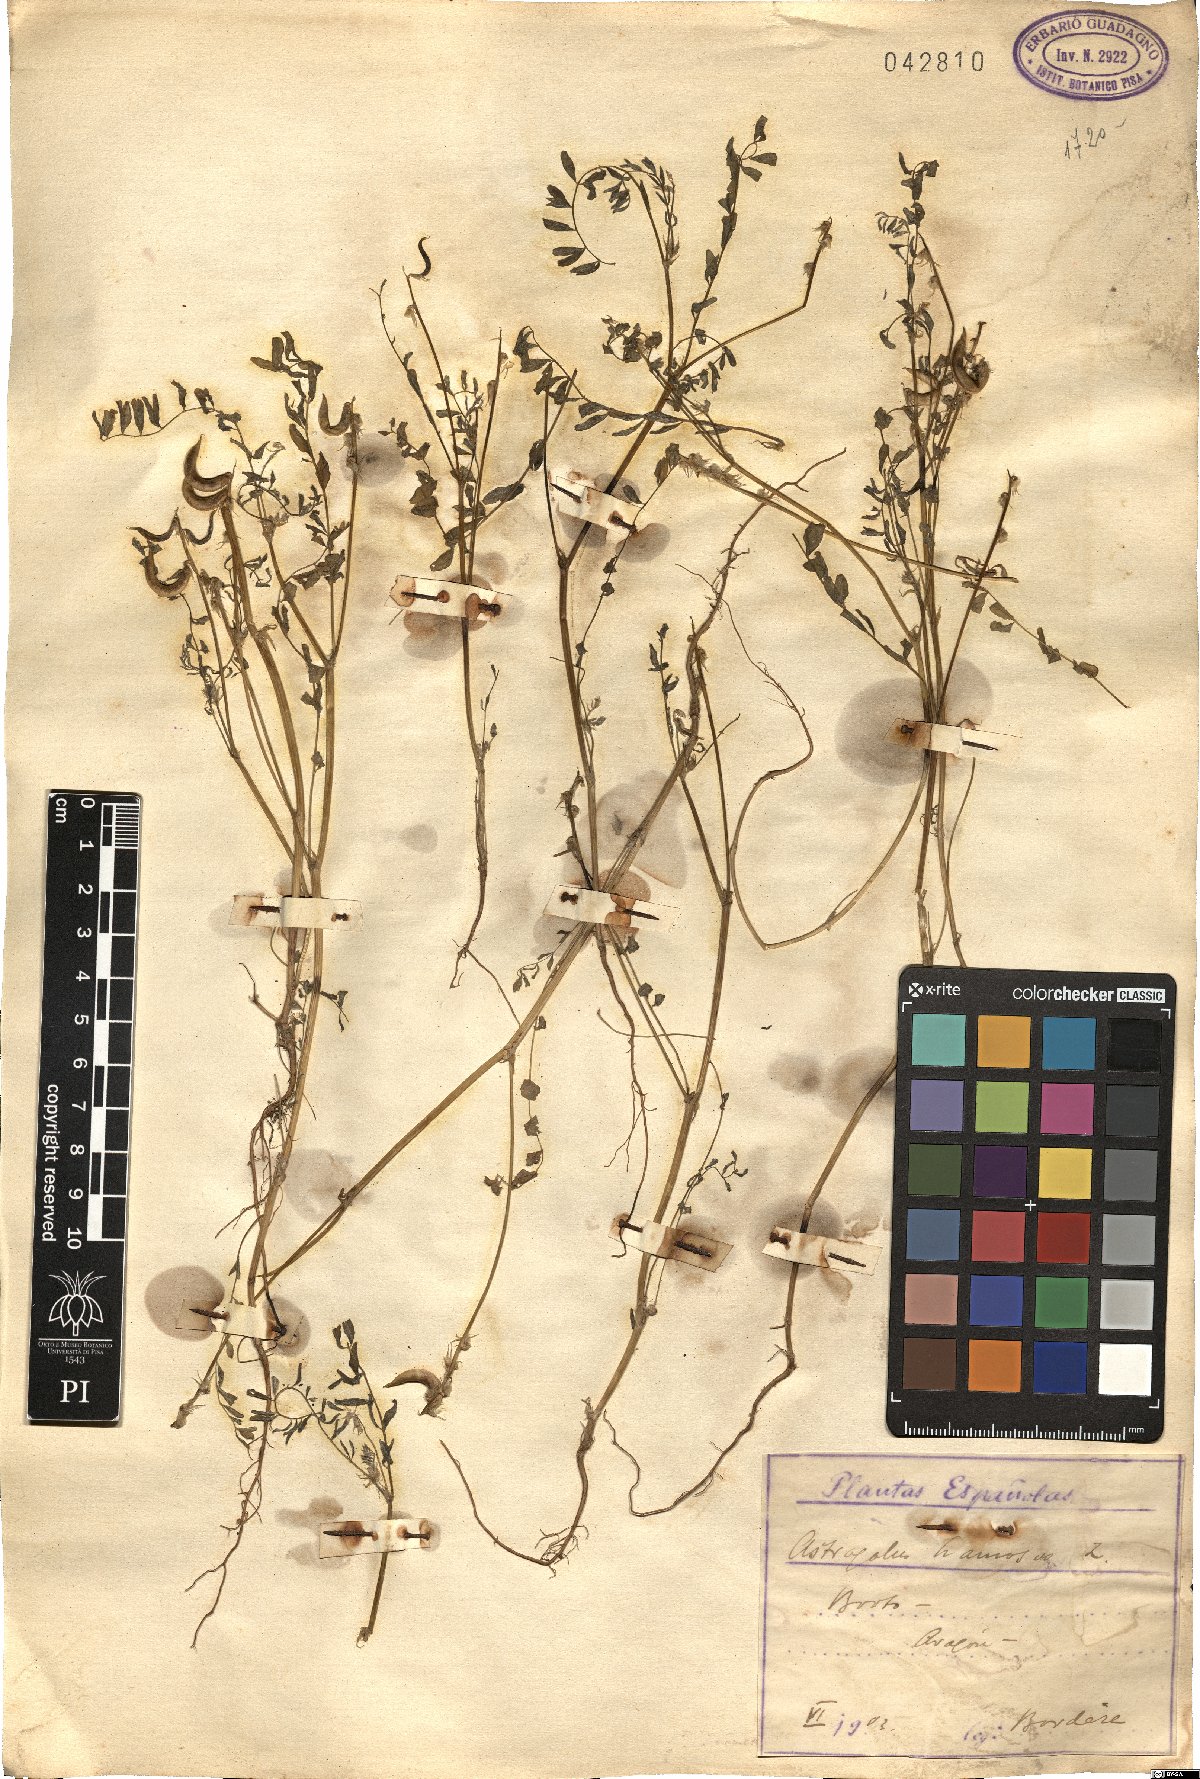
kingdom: Plantae
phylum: Tracheophyta
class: Magnoliopsida
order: Fabales
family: Fabaceae
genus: Astragalus
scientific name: Astragalus hamosus
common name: European milkvetch
